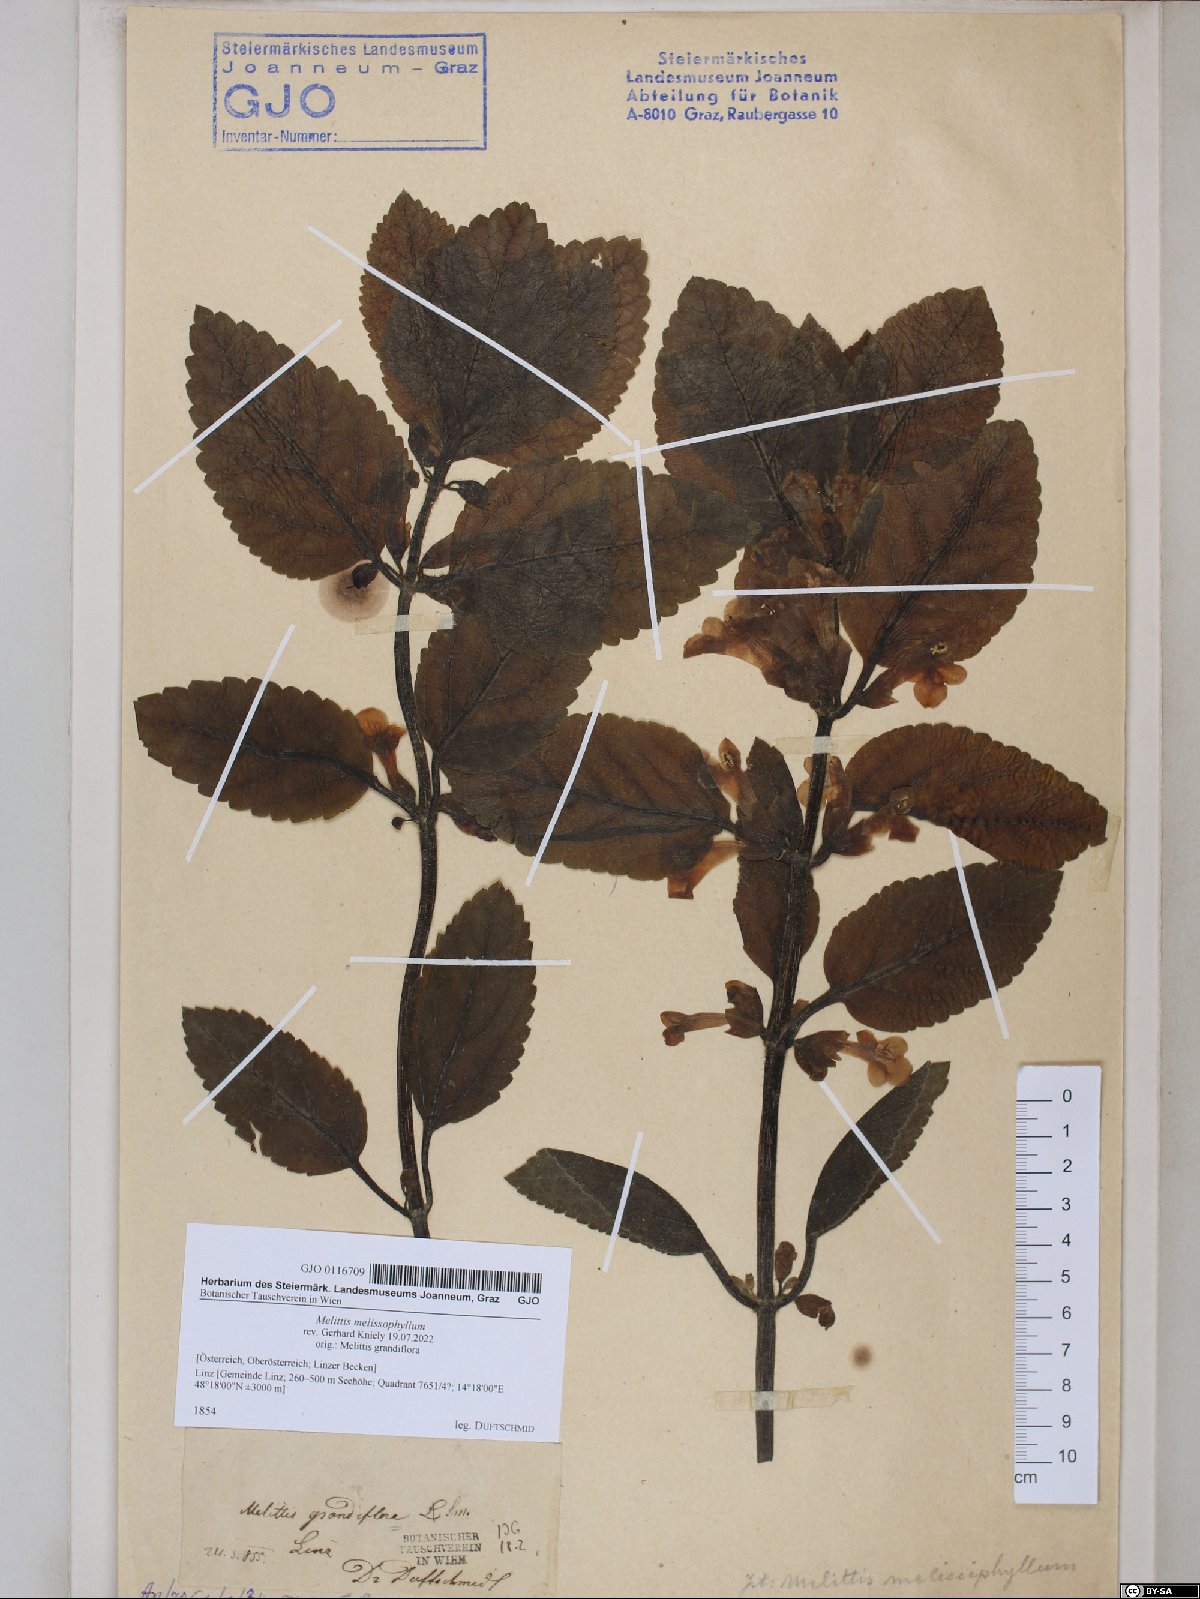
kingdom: Plantae
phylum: Tracheophyta
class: Magnoliopsida
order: Lamiales
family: Lamiaceae
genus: Melittis
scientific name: Melittis melissophyllum
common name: Bastard balm
